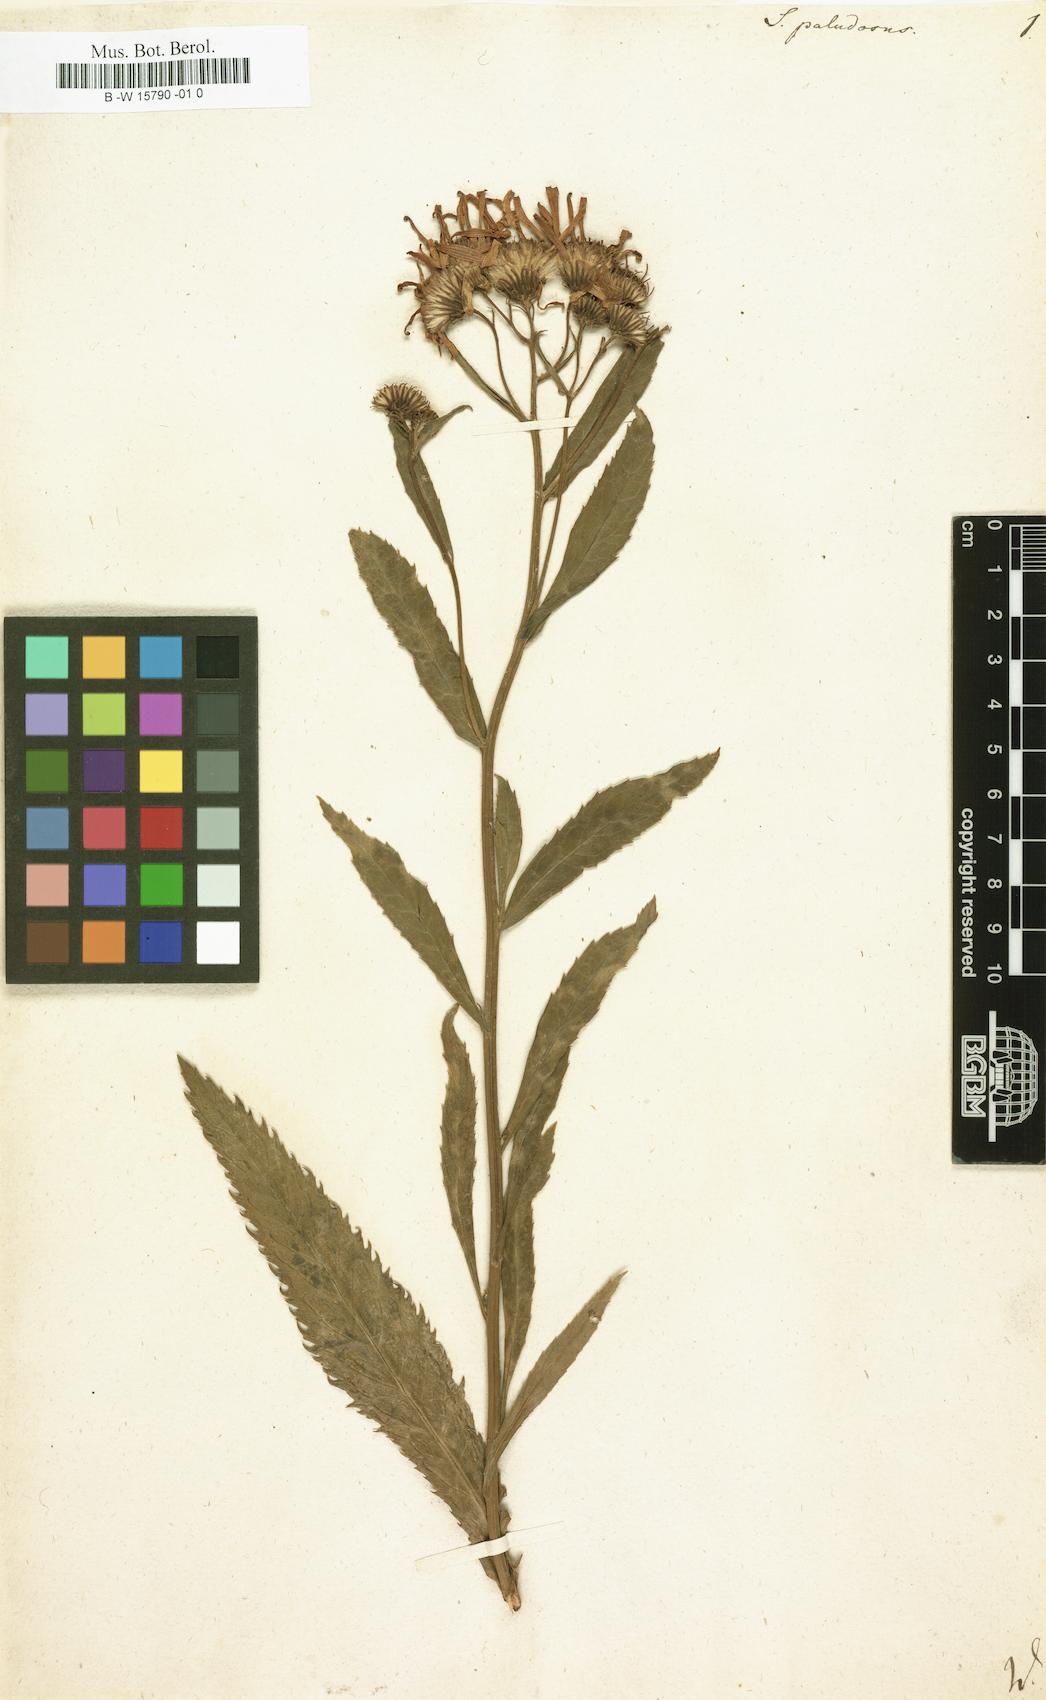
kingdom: Plantae
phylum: Tracheophyta
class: Magnoliopsida
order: Asterales
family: Asteraceae
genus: Jacobaea
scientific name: Jacobaea paludosa
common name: Fen ragwort
